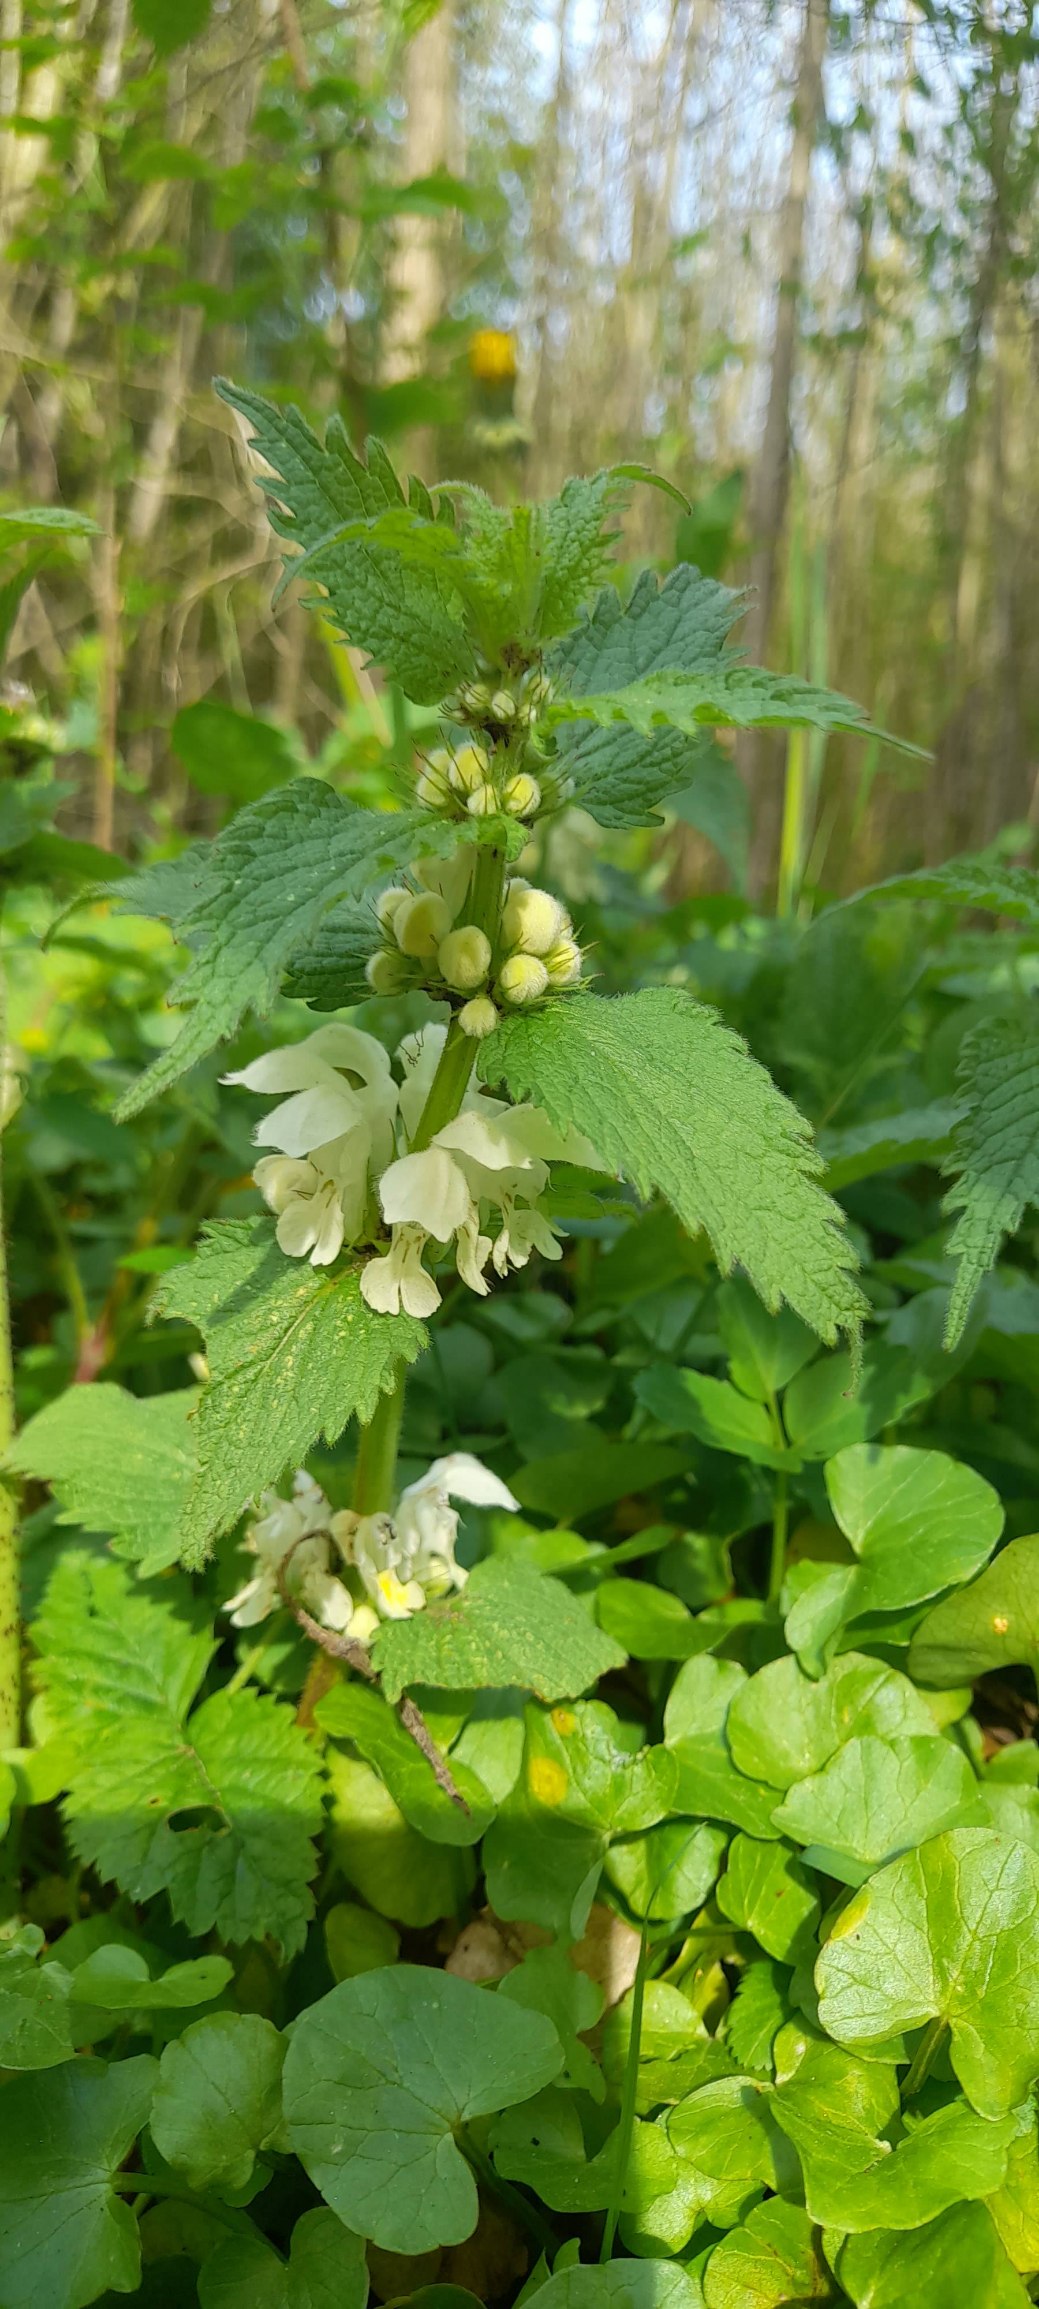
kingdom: Plantae
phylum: Tracheophyta
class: Magnoliopsida
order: Lamiales
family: Lamiaceae
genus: Lamium
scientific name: Lamium album
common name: Døvnælde
